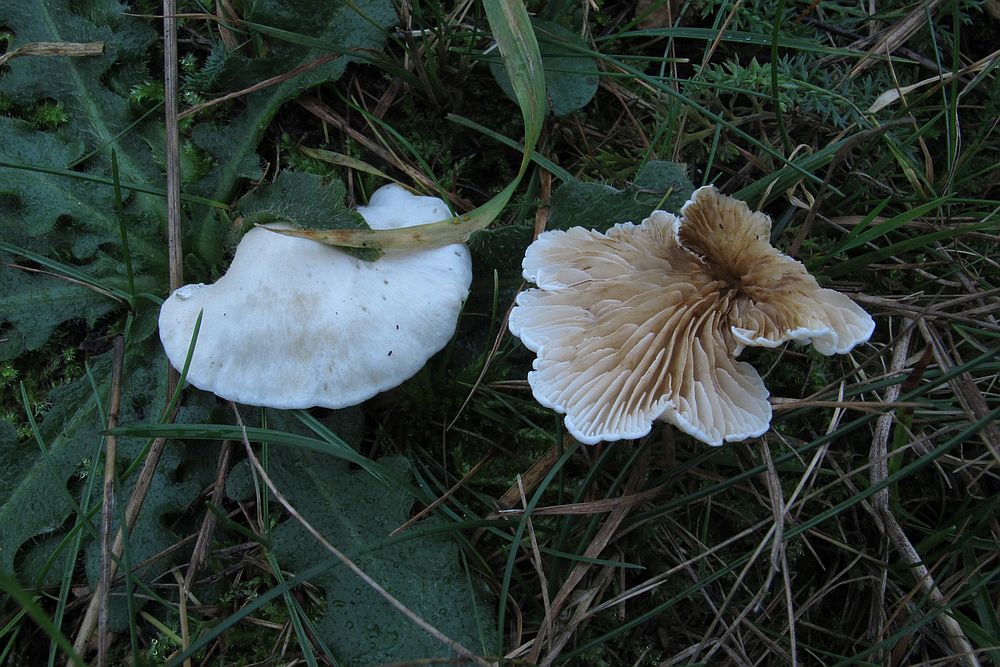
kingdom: Fungi
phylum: Basidiomycota
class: Agaricomycetes
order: Agaricales
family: Crepidotaceae
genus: Crepidotus
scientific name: Crepidotus caspari
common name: Lundells muslingesvamp
